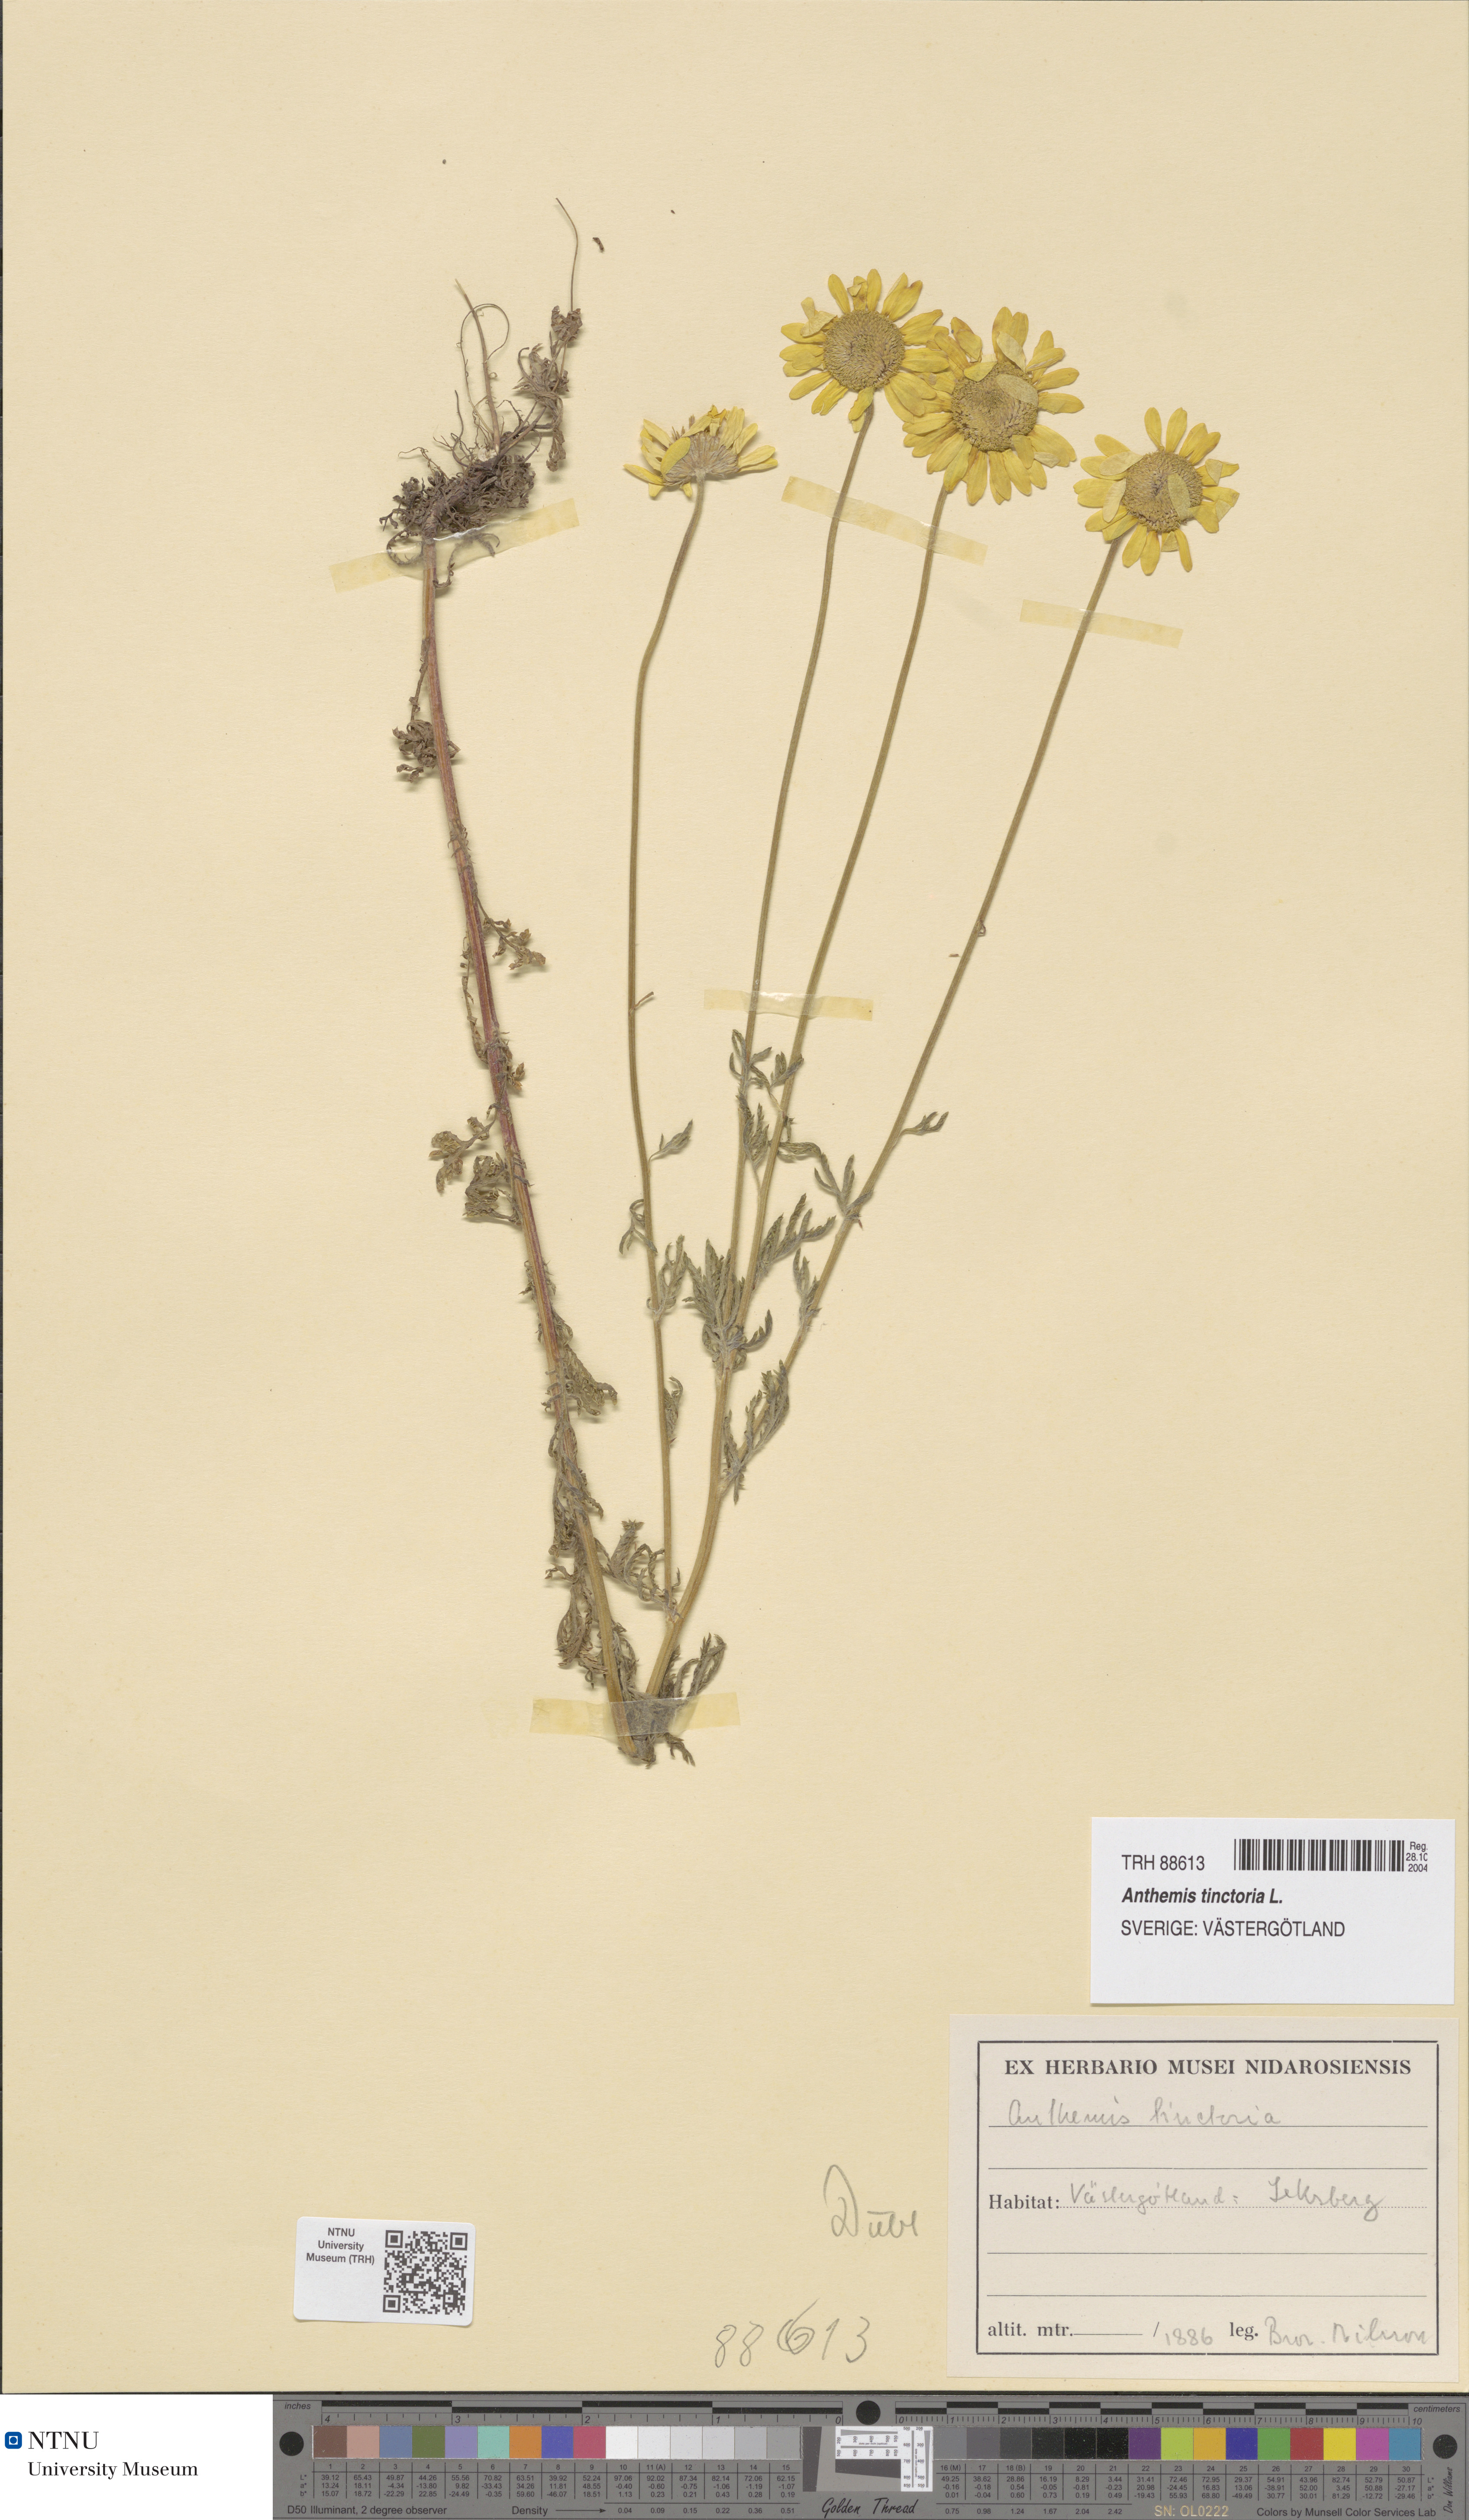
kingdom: Plantae
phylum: Tracheophyta
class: Magnoliopsida
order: Asterales
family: Asteraceae
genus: Cota
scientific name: Cota tinctoria
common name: Golden chamomile
